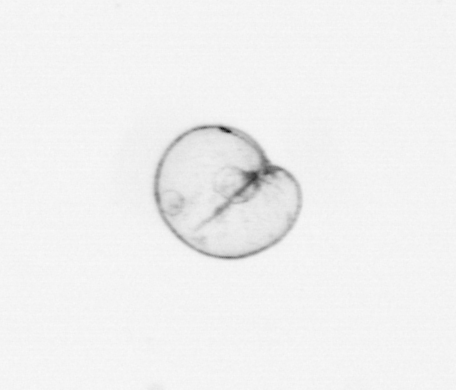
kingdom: Chromista
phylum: Myzozoa
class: Dinophyceae
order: Noctilucales
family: Noctilucaceae
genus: Noctiluca
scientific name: Noctiluca scintillans
